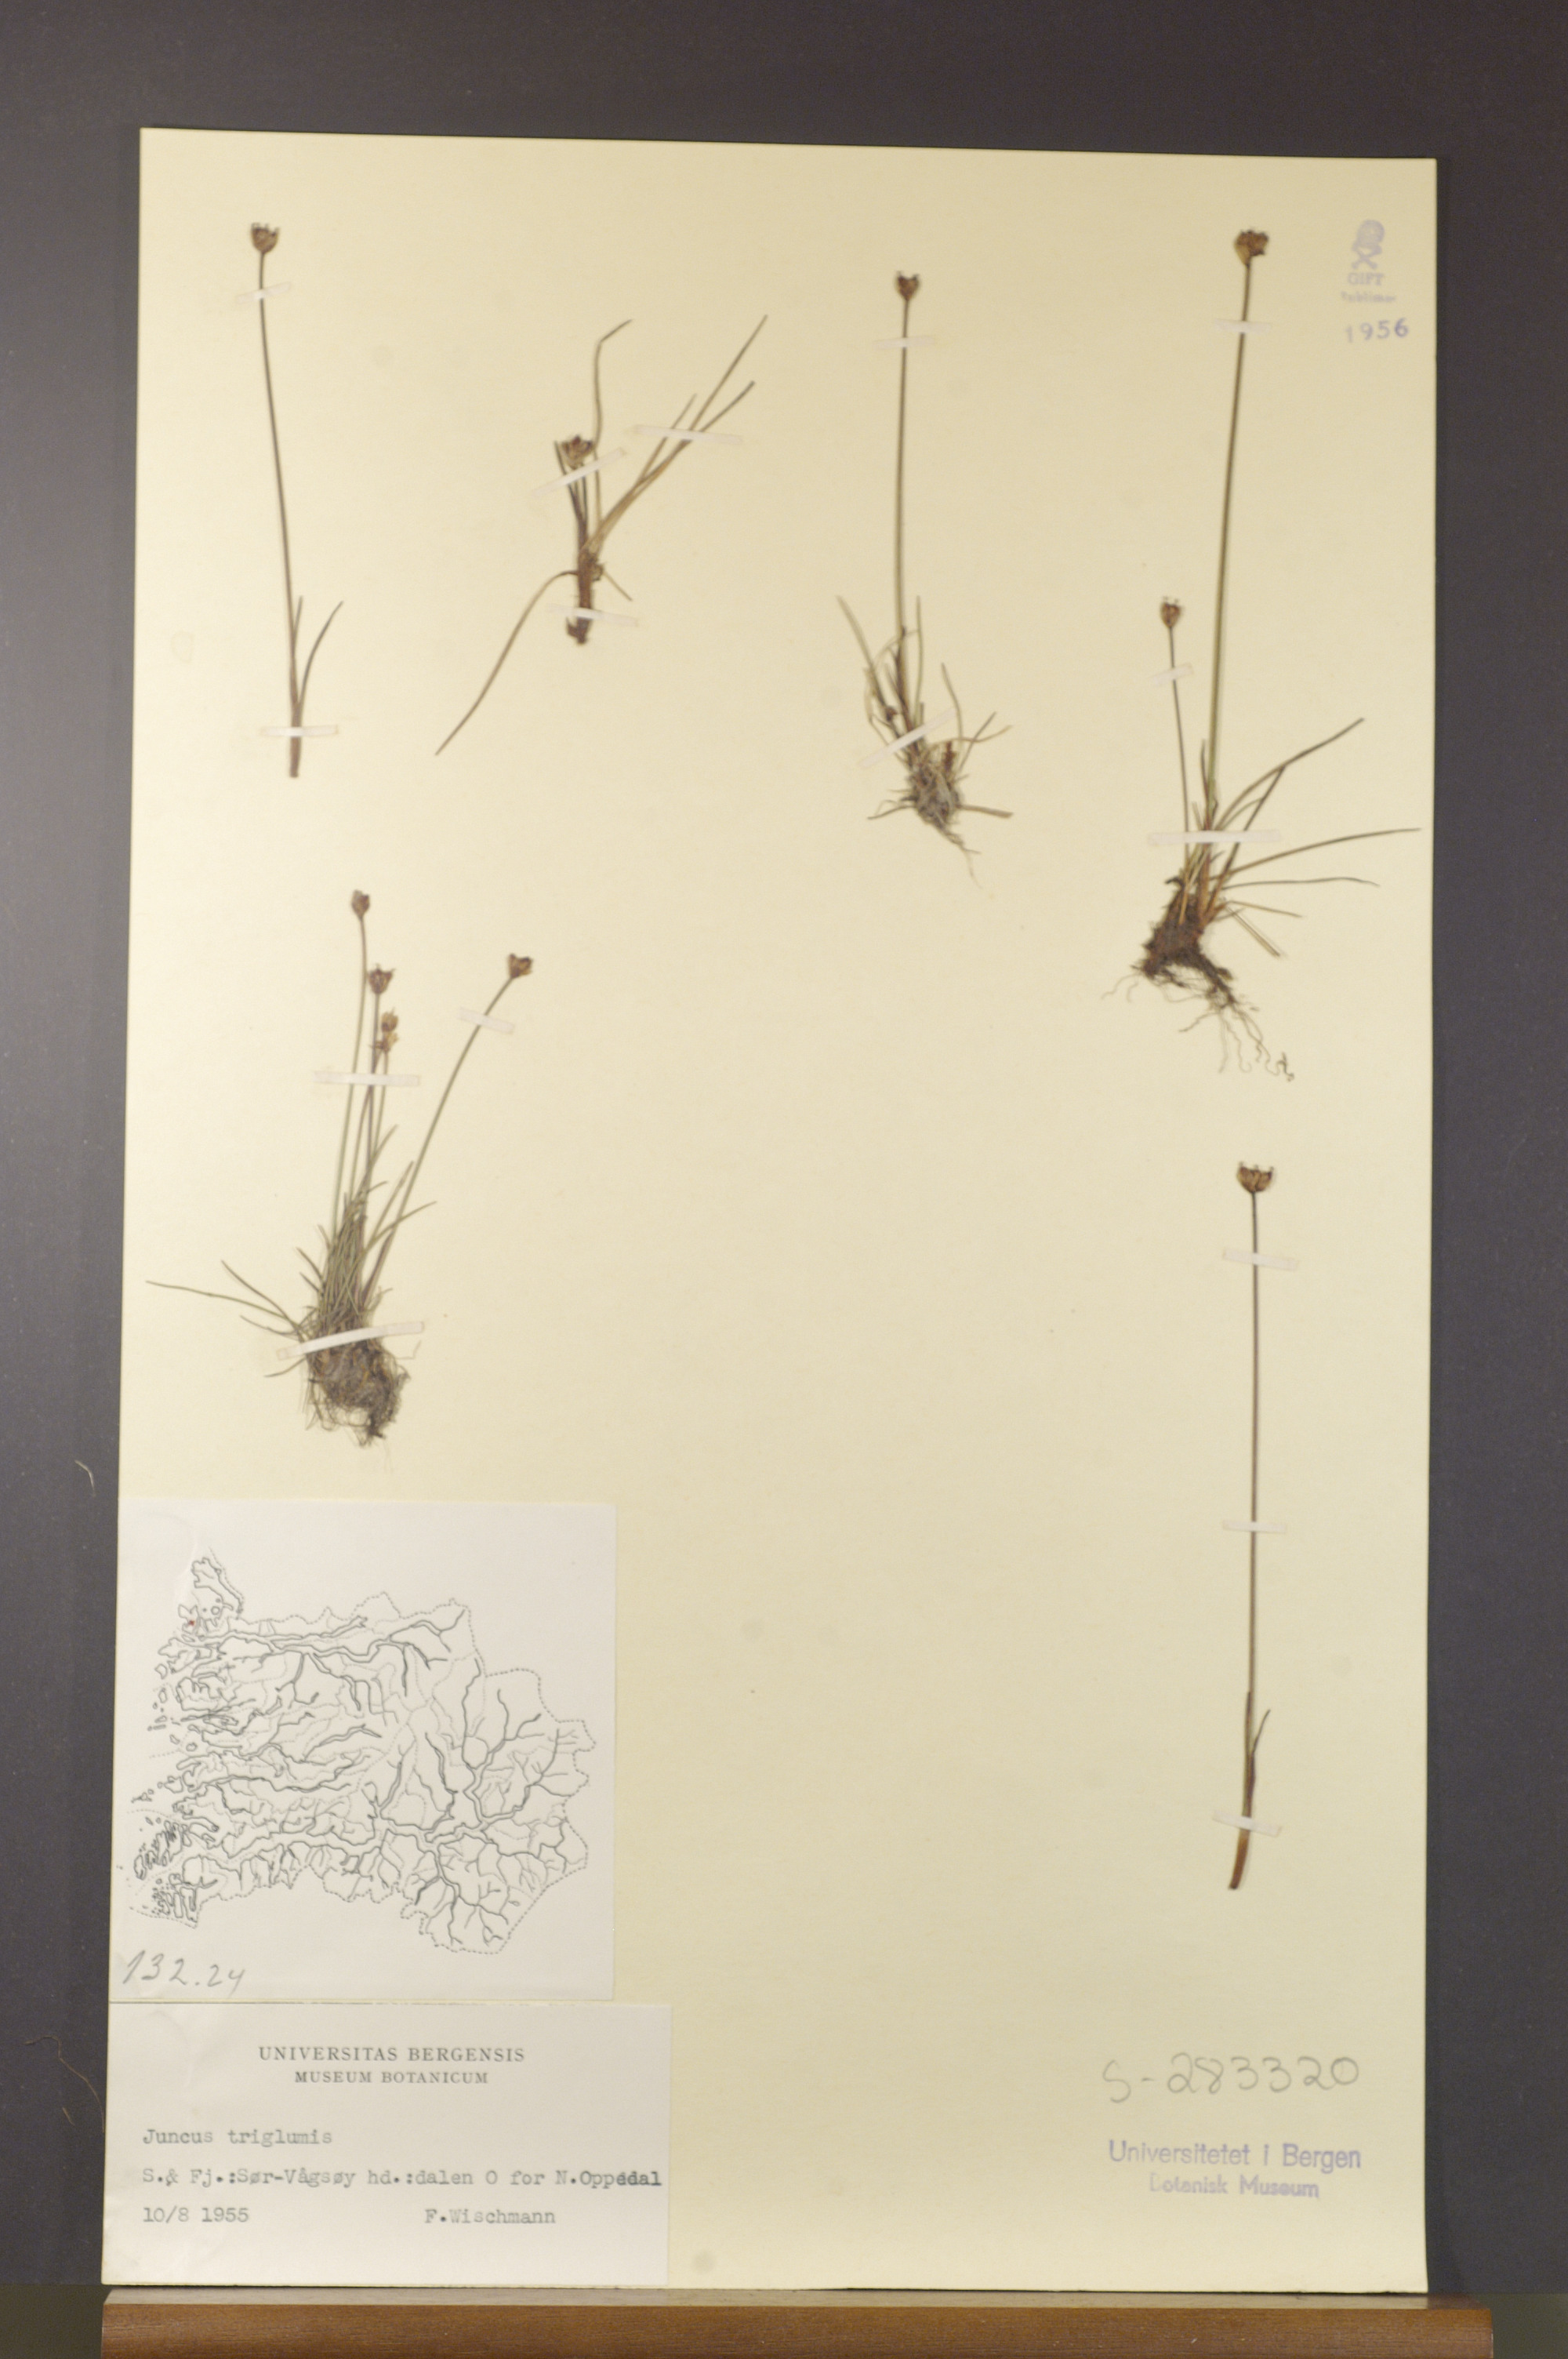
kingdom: Plantae
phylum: Tracheophyta
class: Liliopsida
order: Poales
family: Juncaceae
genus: Juncus
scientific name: Juncus triglumis
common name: Three-flowered rush
